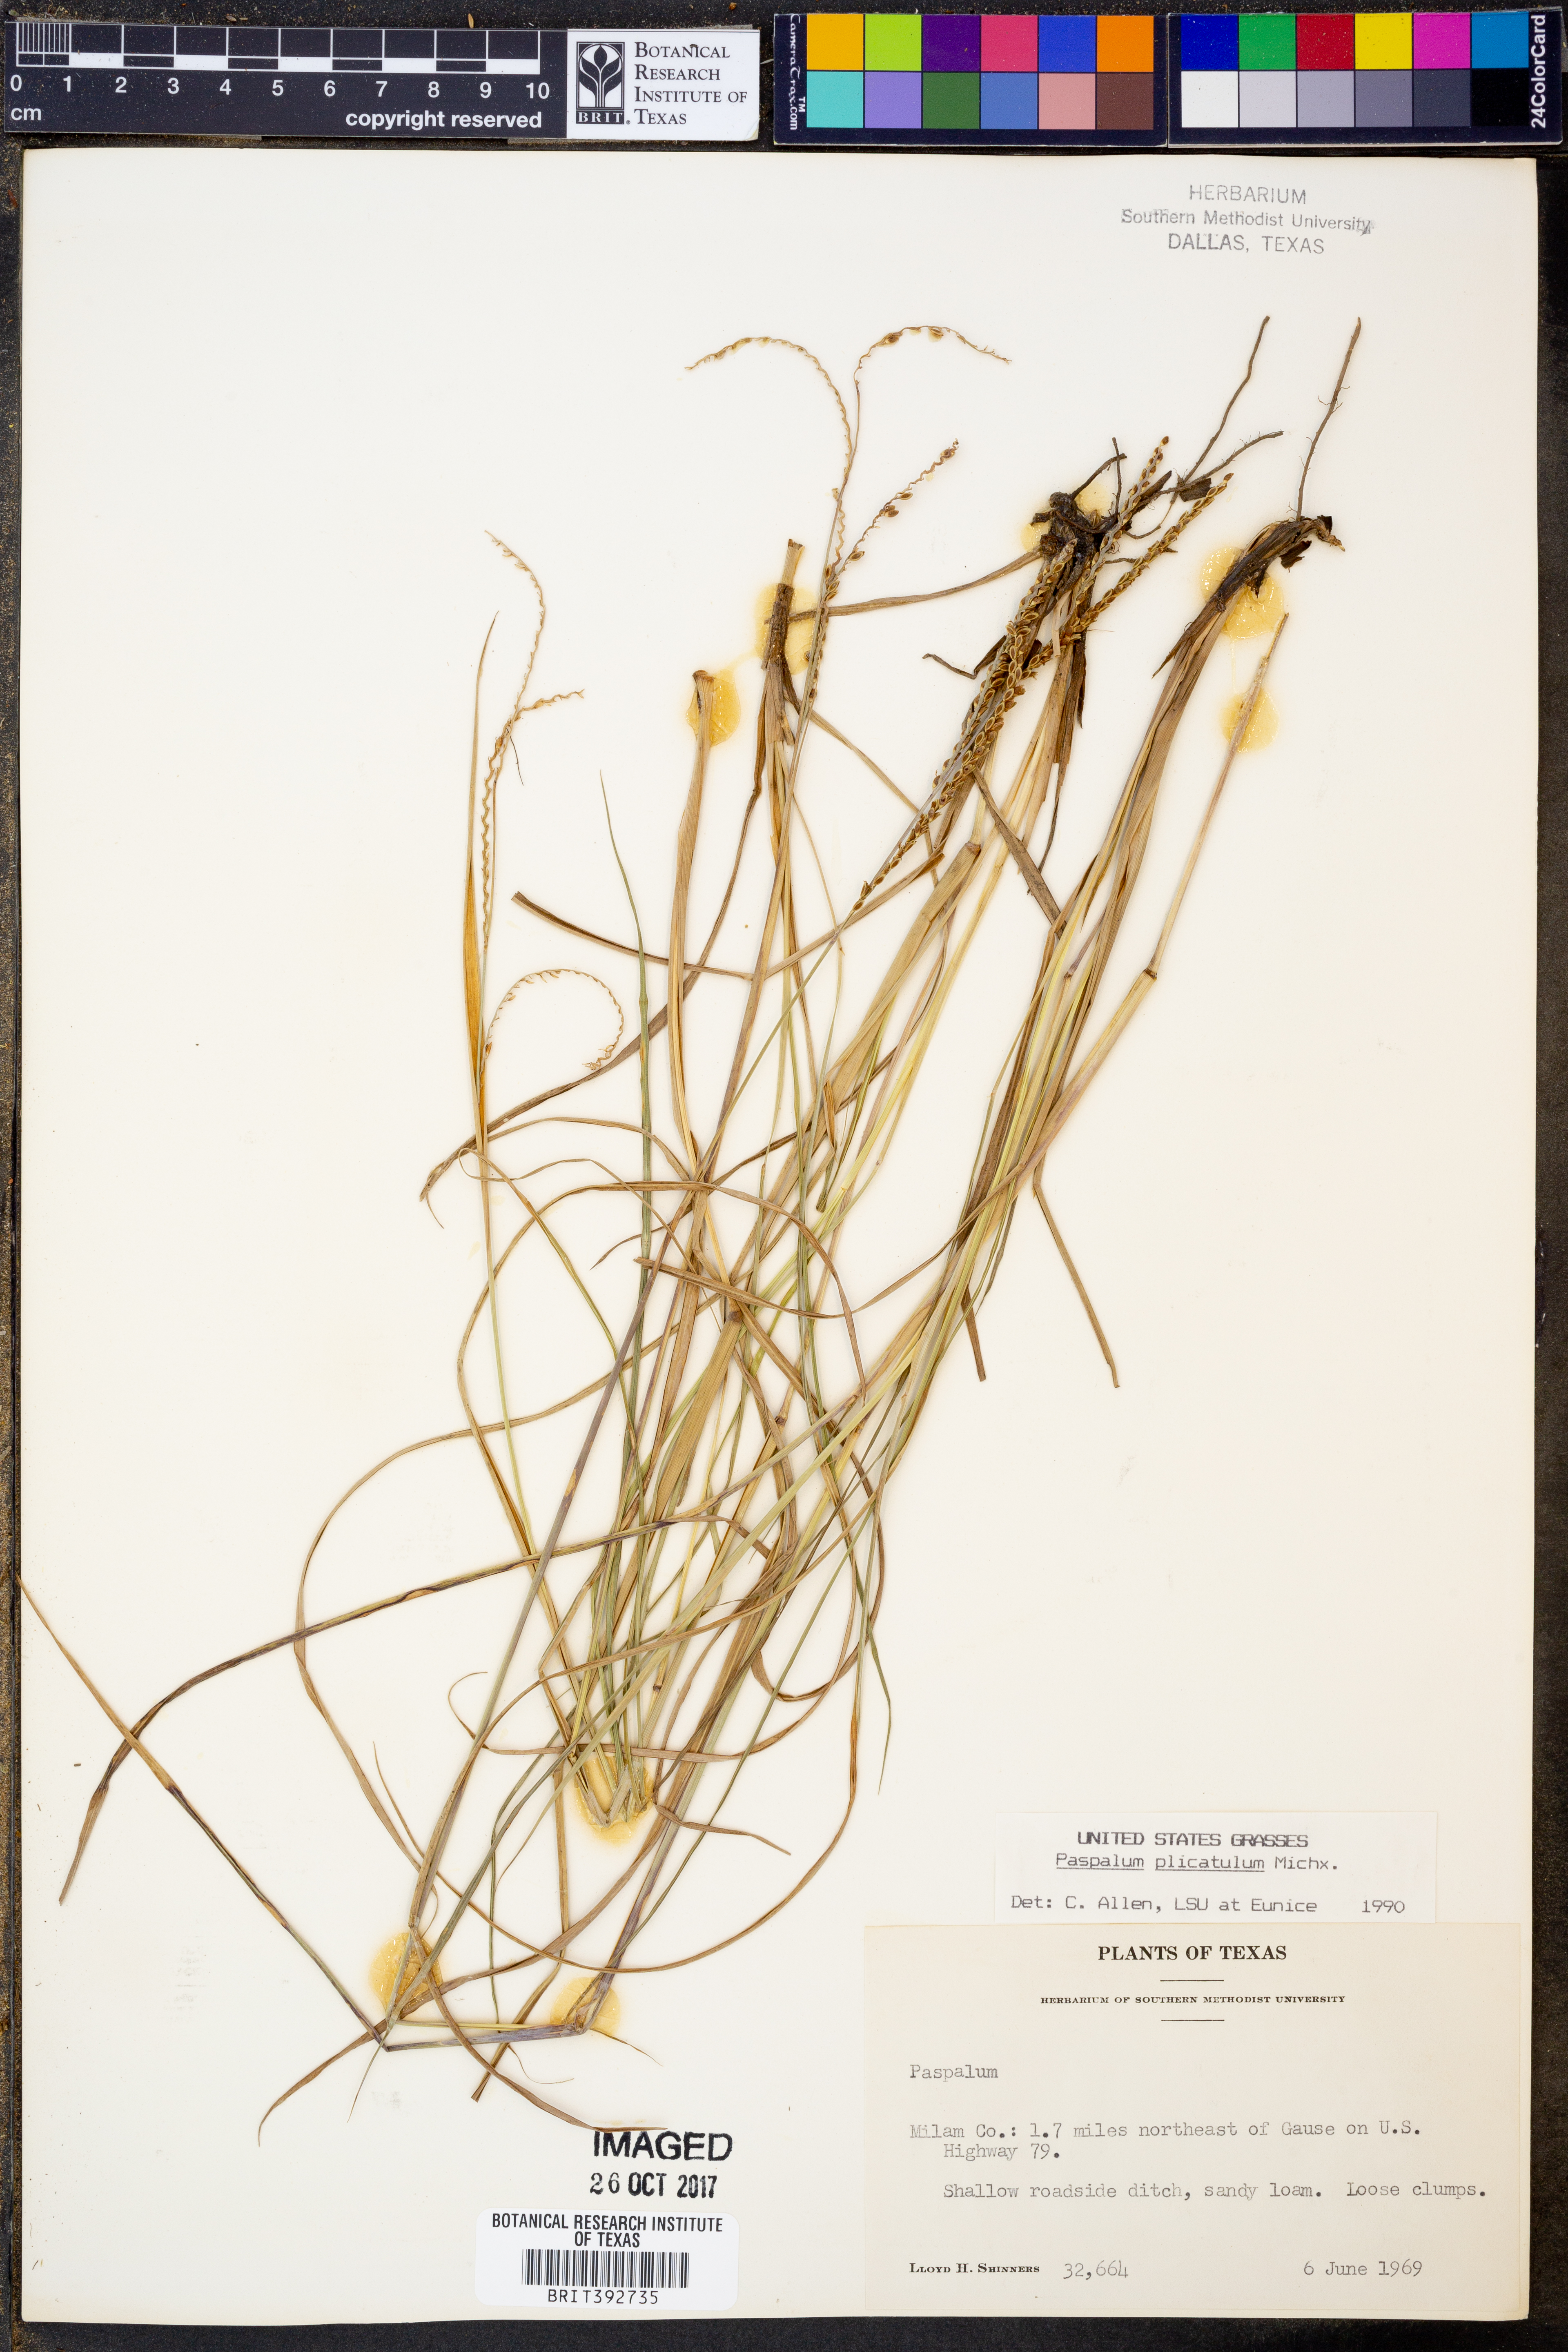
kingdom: Plantae
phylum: Tracheophyta
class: Liliopsida
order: Poales
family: Poaceae
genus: Paspalum
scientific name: Paspalum plicatulum
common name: Top paspalum
